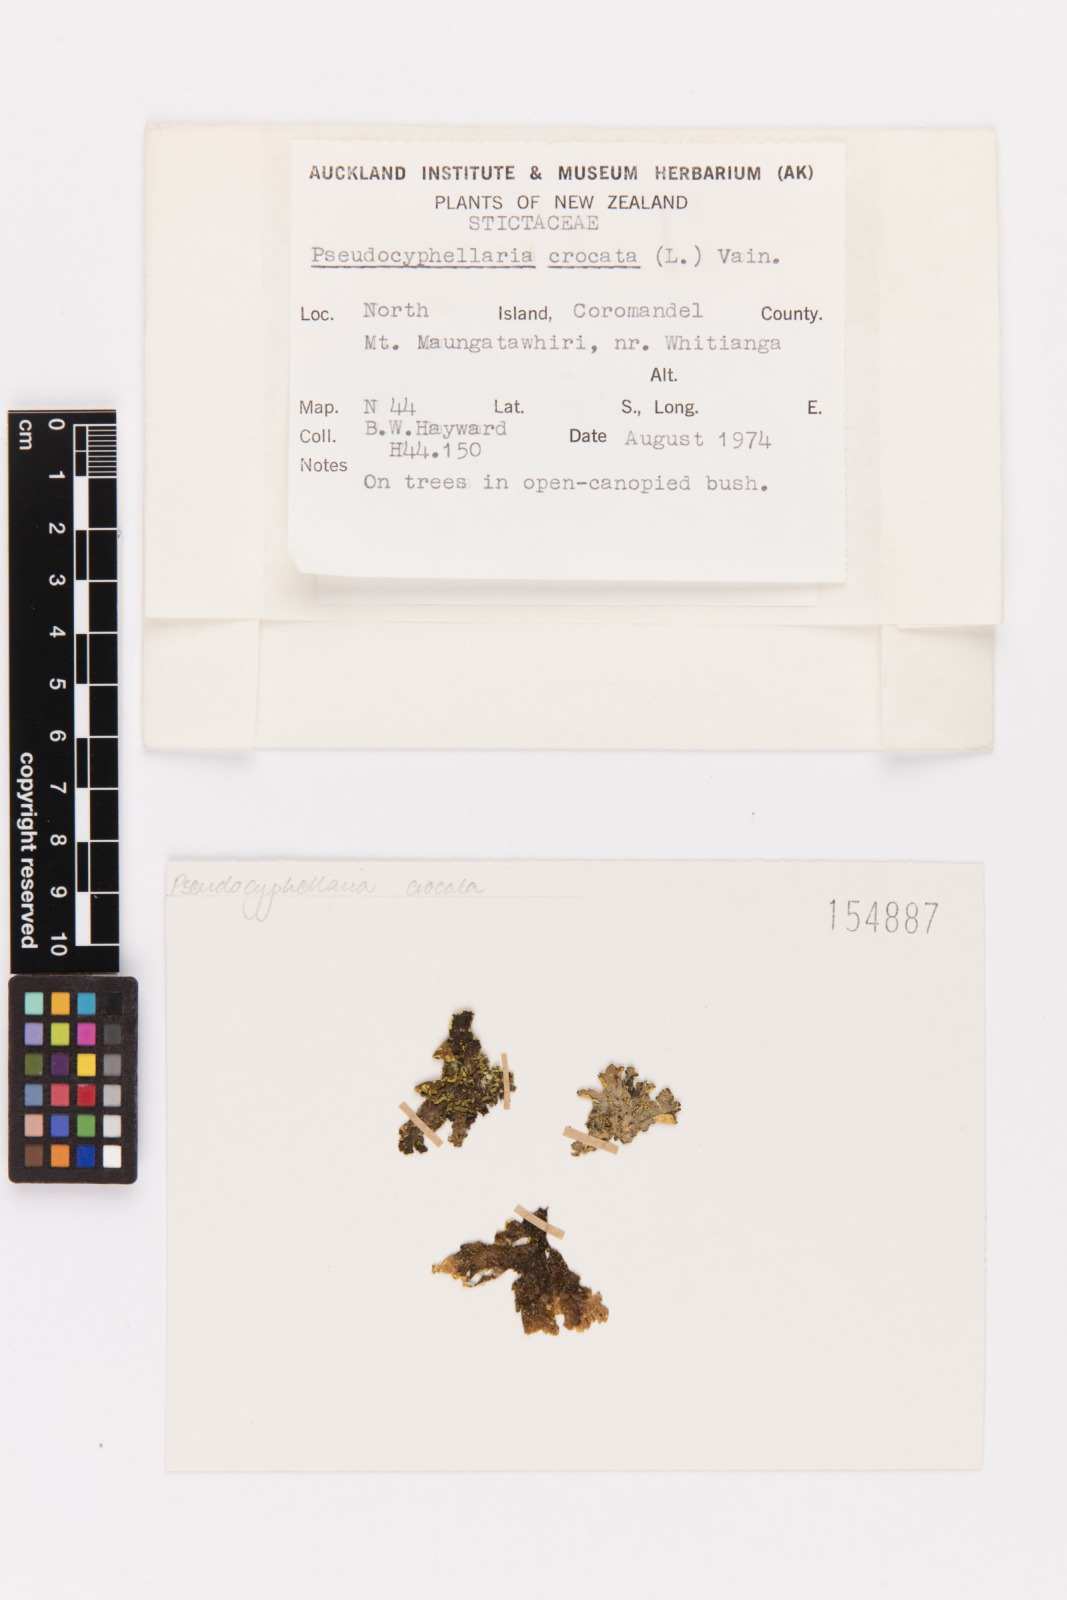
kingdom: Fungi
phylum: Ascomycota
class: Lecanoromycetes
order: Peltigerales
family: Lobariaceae
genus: Pseudocyphellaria
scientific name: Pseudocyphellaria crocata
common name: Golden specklebelly
